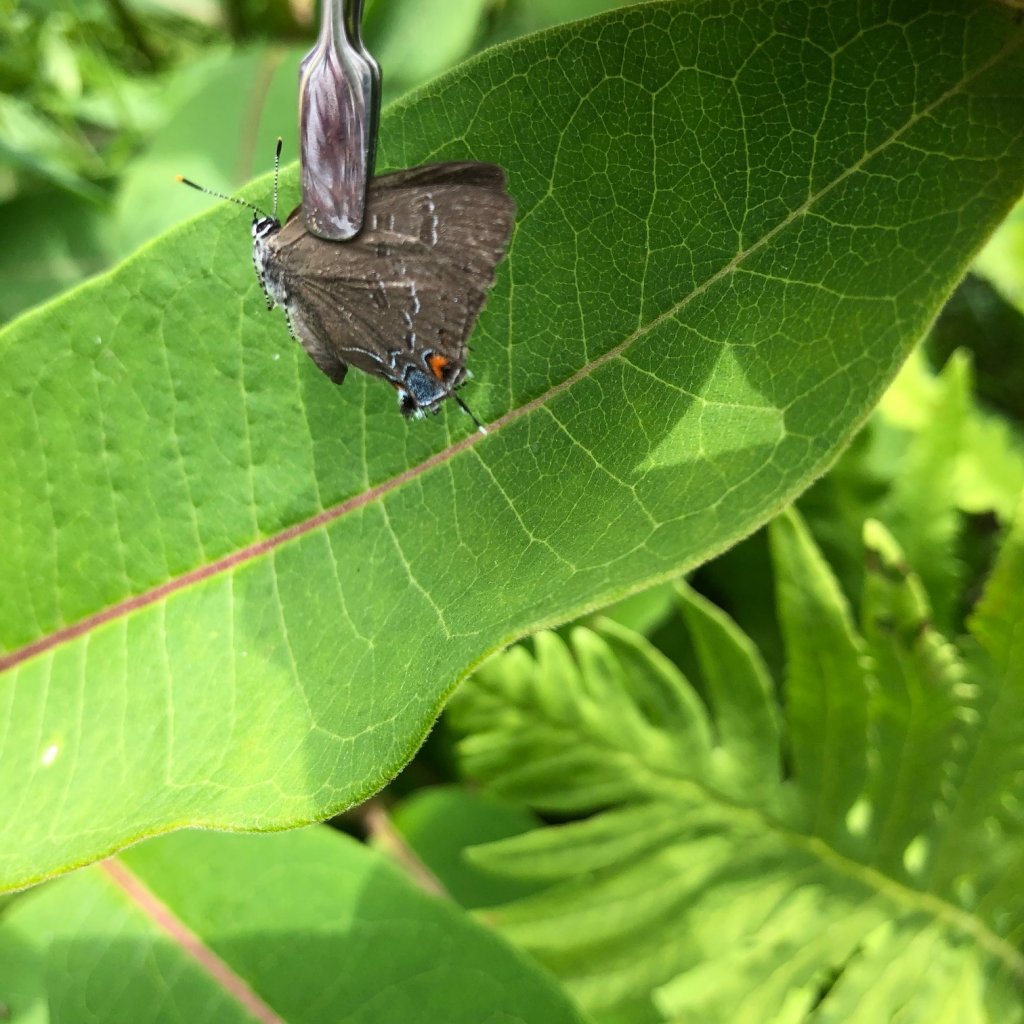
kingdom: Animalia
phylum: Arthropoda
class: Insecta
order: Lepidoptera
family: Lycaenidae
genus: Satyrium
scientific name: Satyrium calanus
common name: Banded Hairstreak
